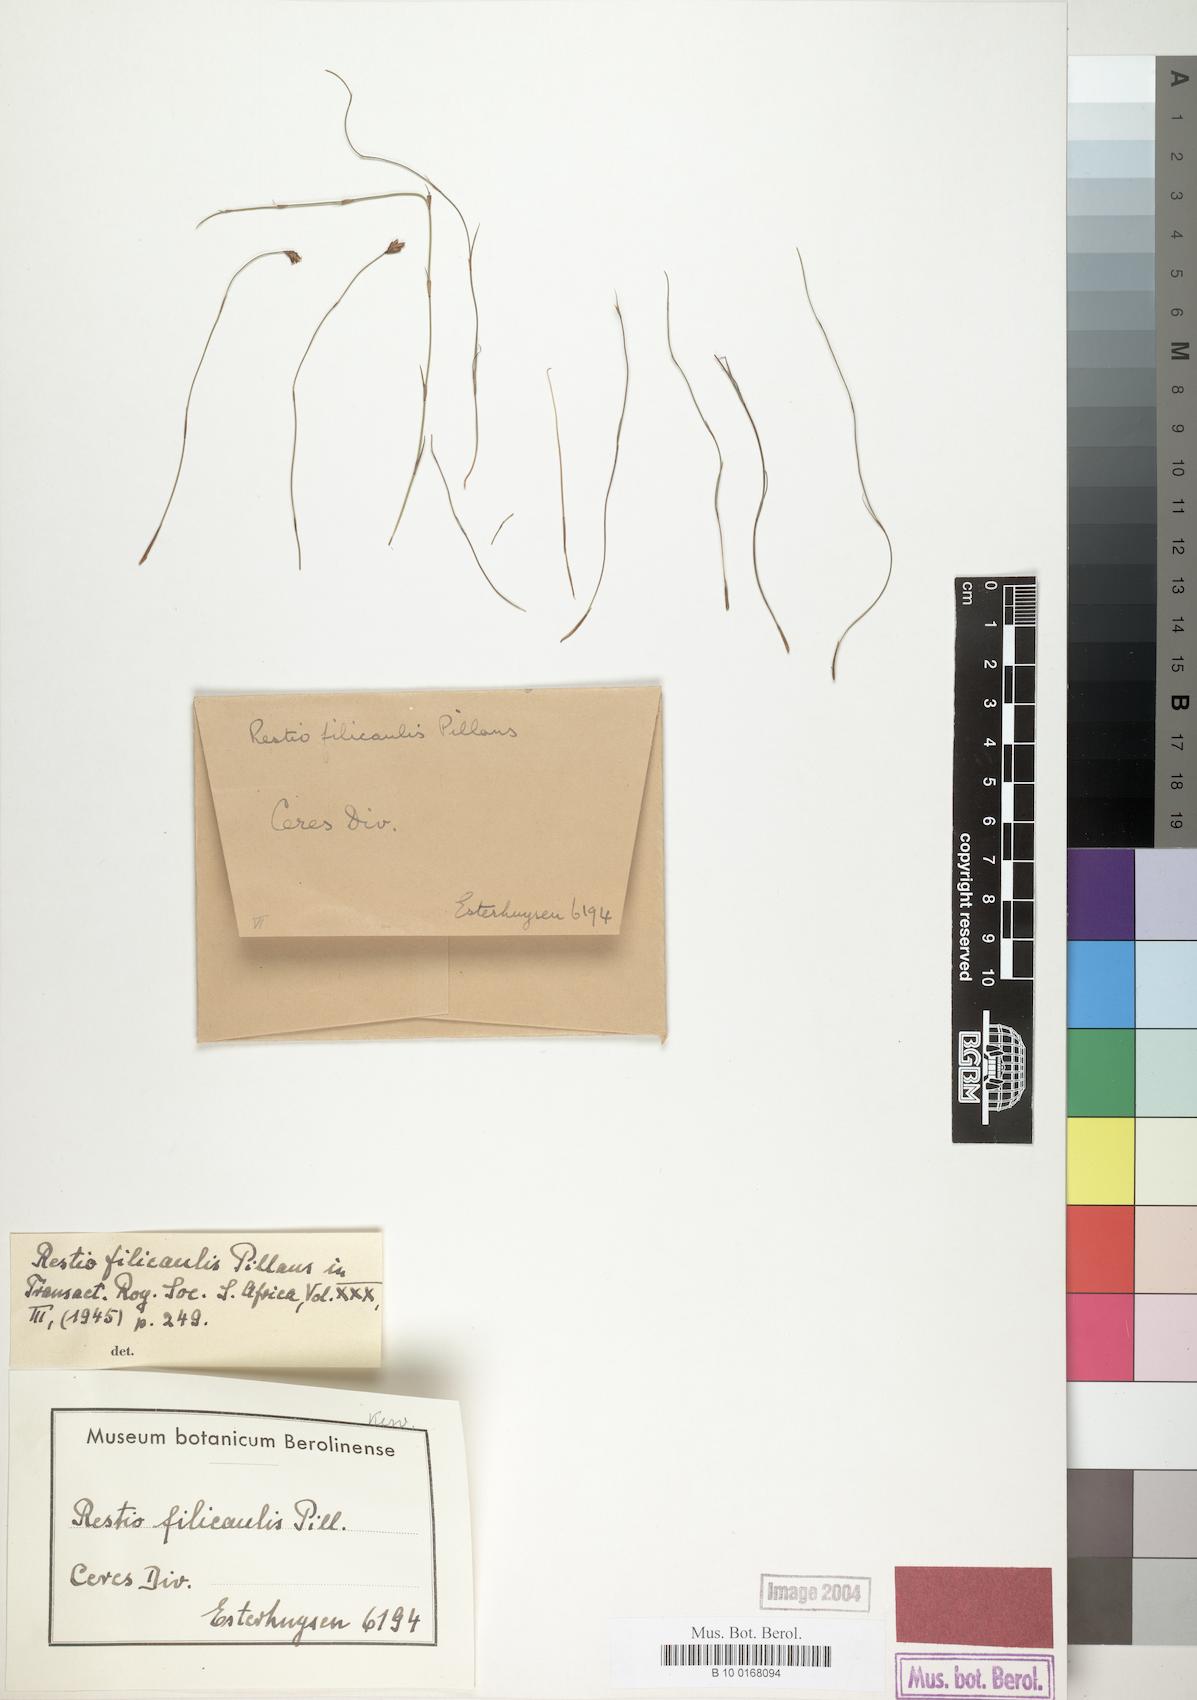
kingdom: Plantae
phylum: Tracheophyta
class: Liliopsida
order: Poales
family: Restionaceae
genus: Restio
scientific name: Restio filicaulis
